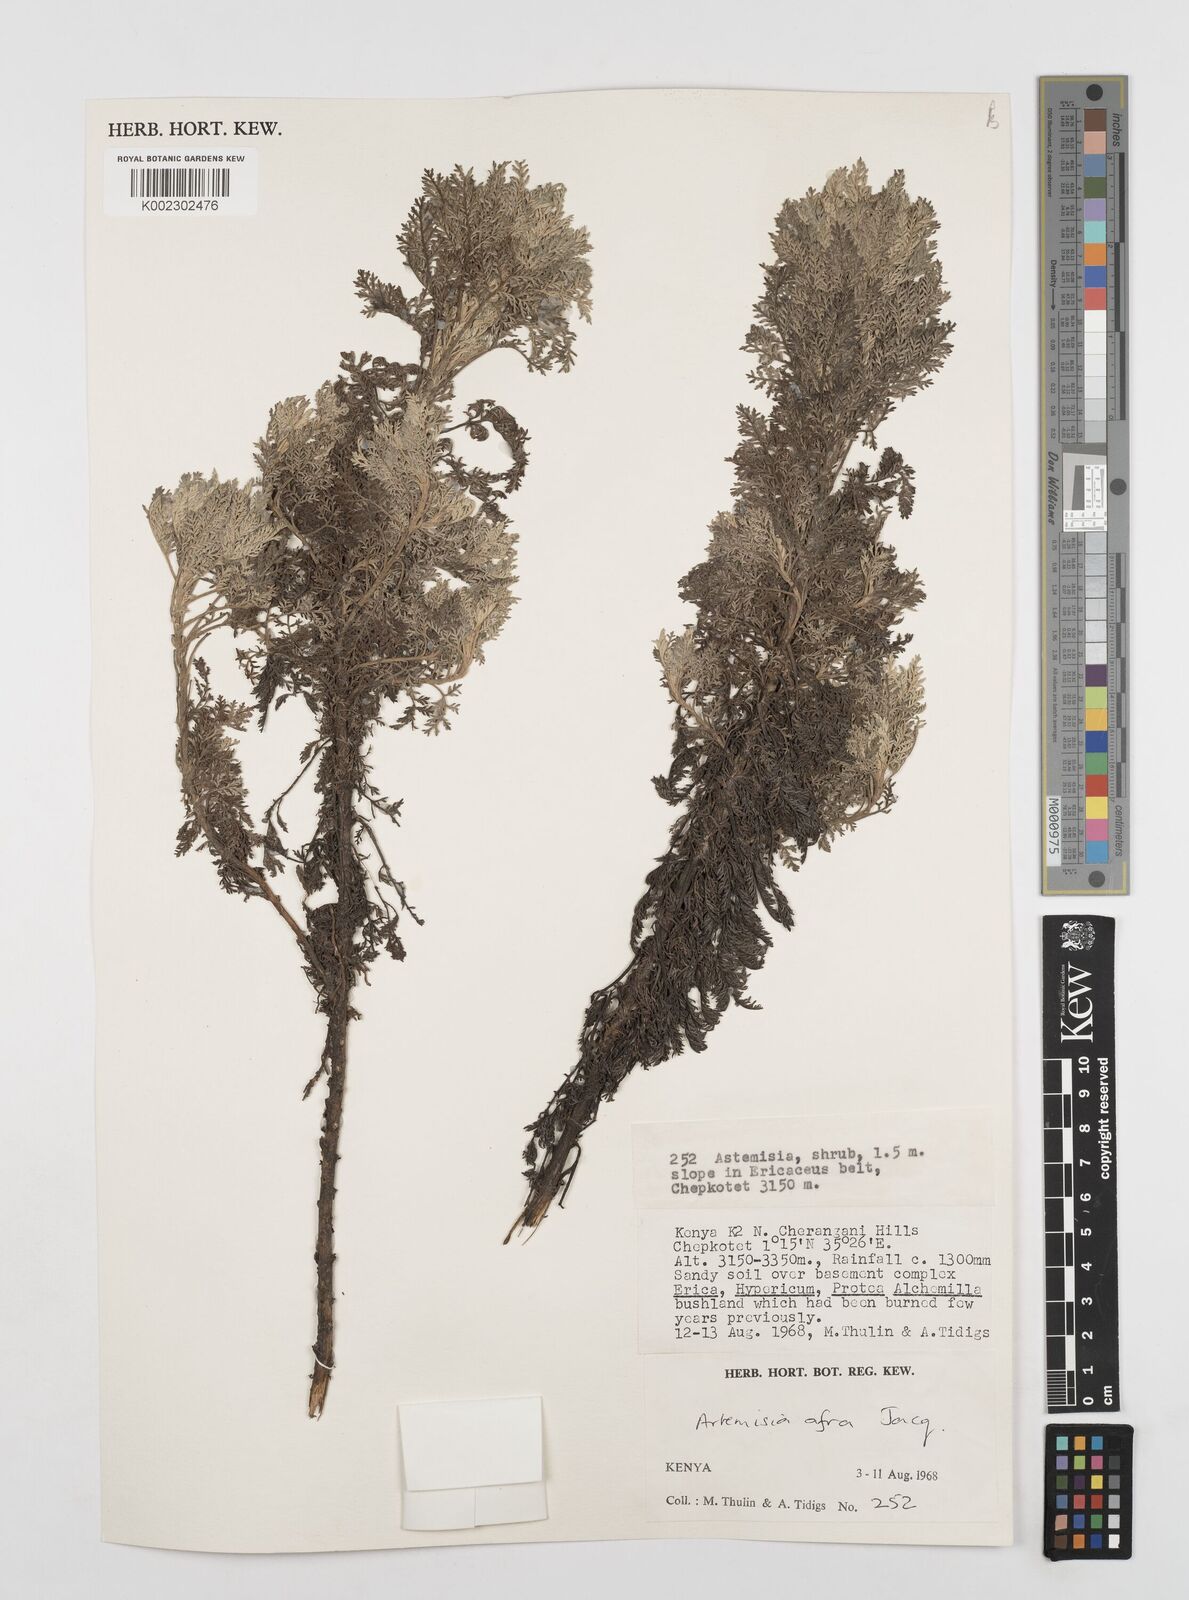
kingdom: Plantae
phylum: Tracheophyta
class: Magnoliopsida
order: Asterales
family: Asteraceae
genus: Artemisia
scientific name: Artemisia afra
